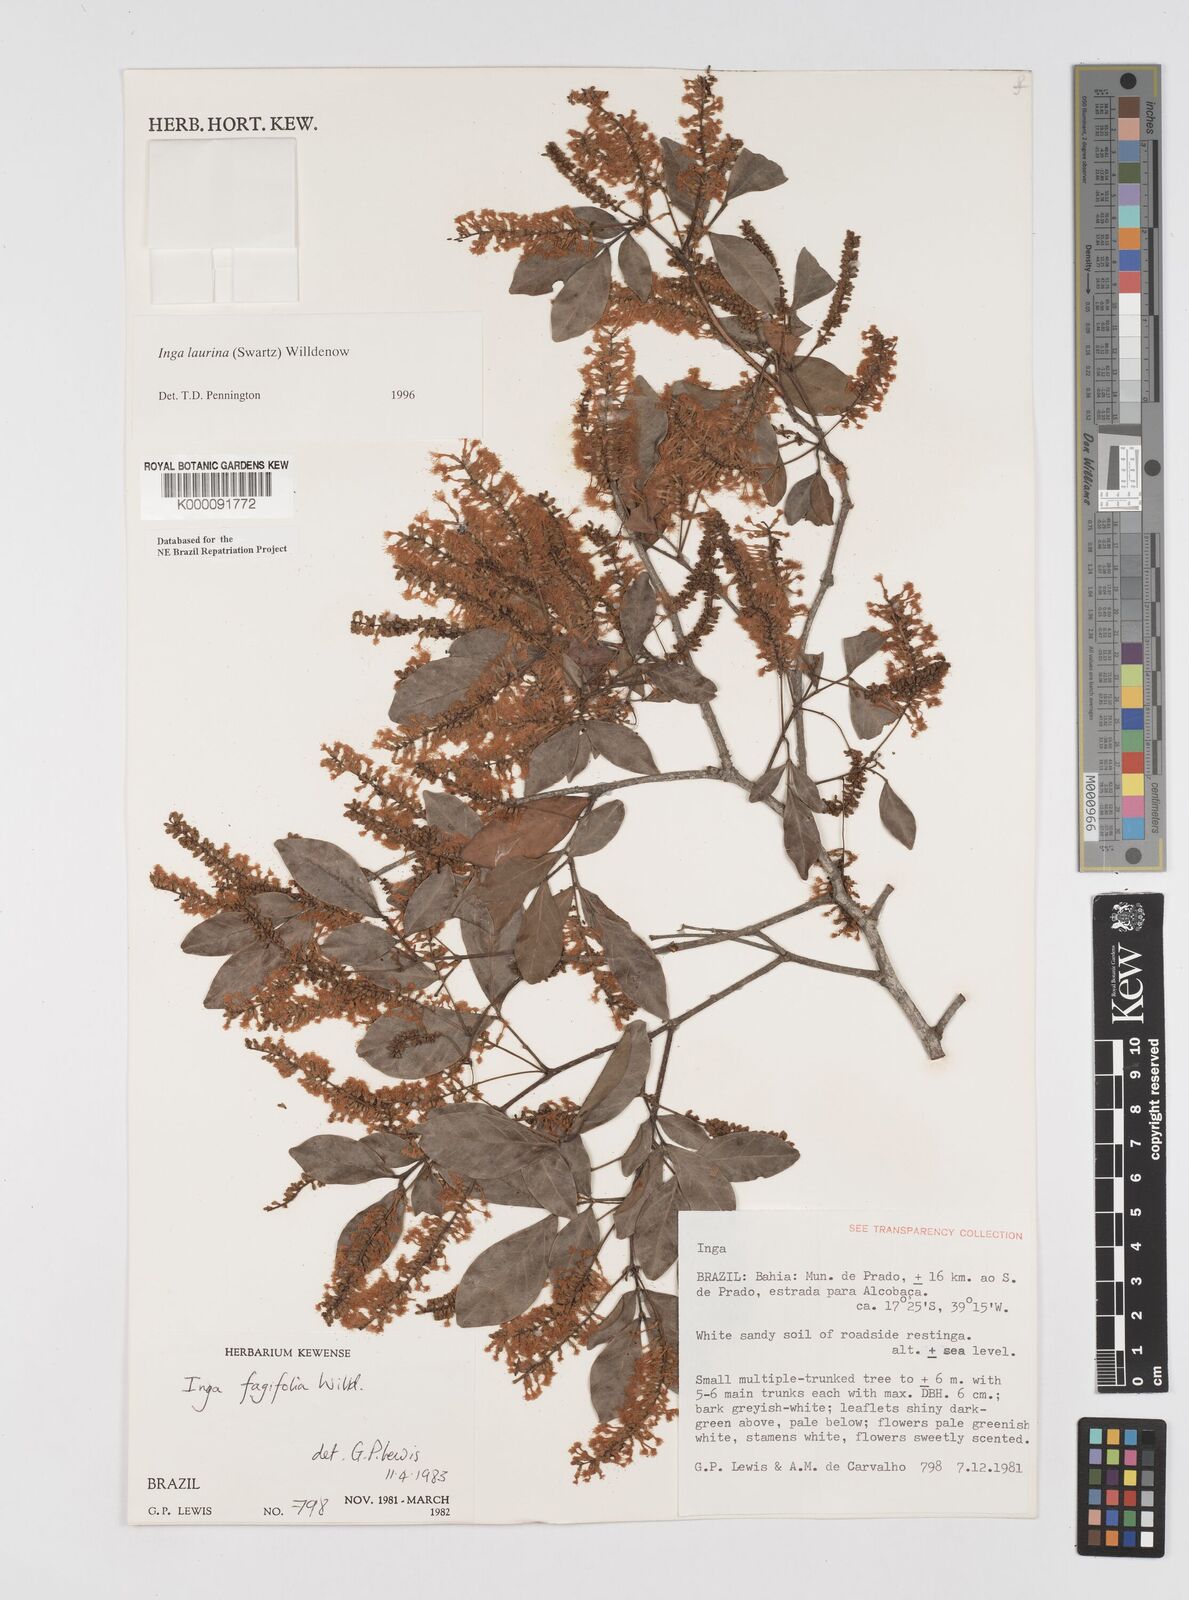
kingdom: Plantae
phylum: Tracheophyta
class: Magnoliopsida
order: Fabales
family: Fabaceae
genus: Inga
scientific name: Inga laurina
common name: Red wood
